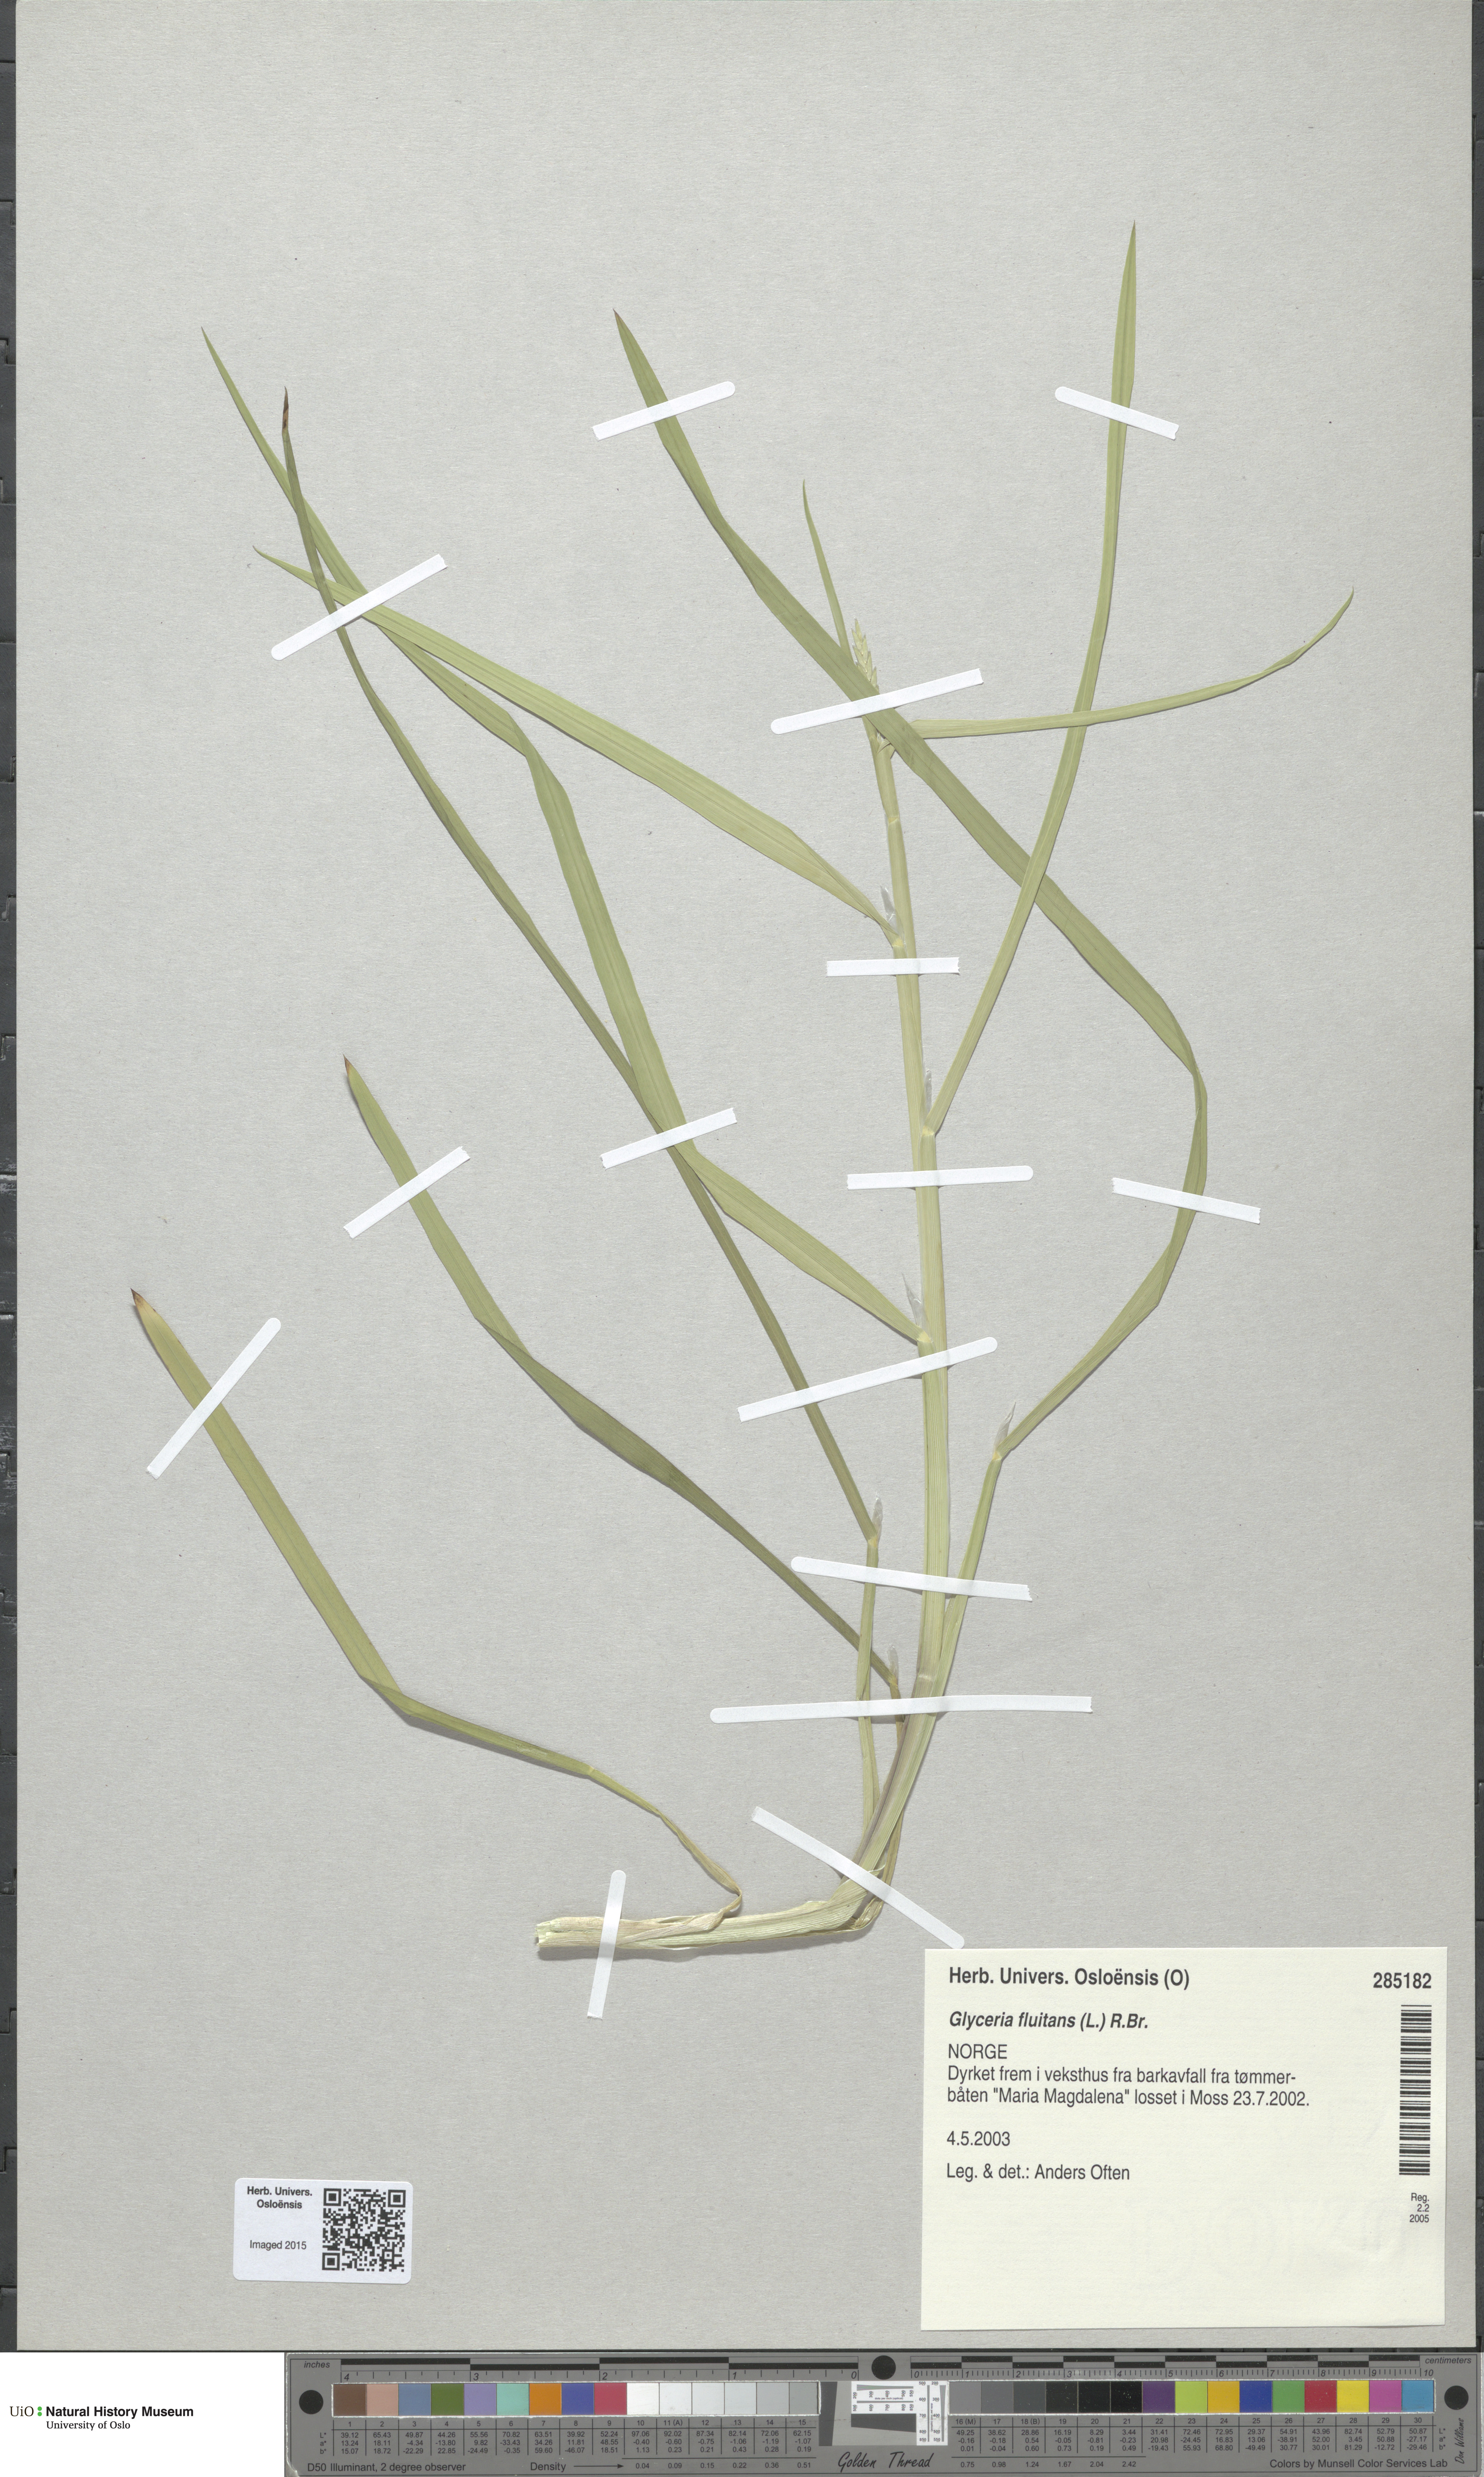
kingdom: Plantae
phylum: Tracheophyta
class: Liliopsida
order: Poales
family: Poaceae
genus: Glyceria
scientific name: Glyceria fluitans
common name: Floating sweet-grass
